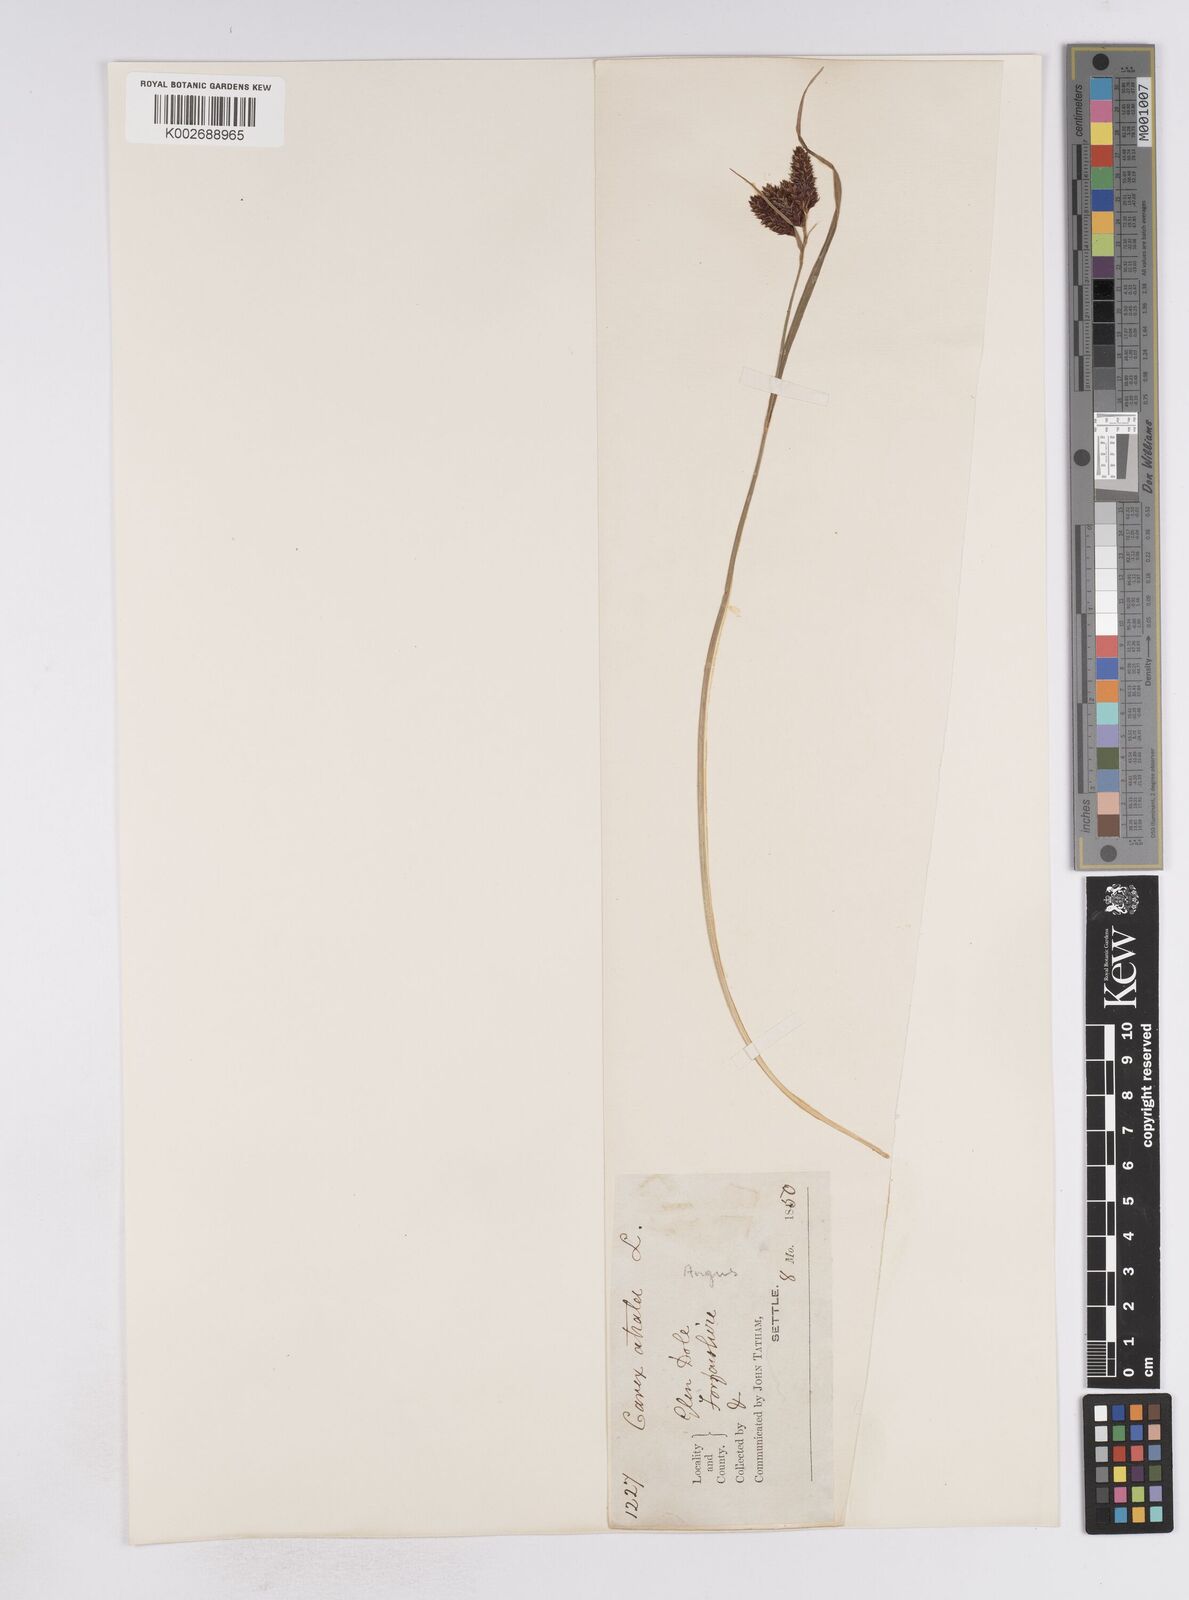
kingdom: Plantae
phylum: Tracheophyta
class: Liliopsida
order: Poales
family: Cyperaceae
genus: Carex
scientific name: Carex atrata
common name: Black alpine sedge
